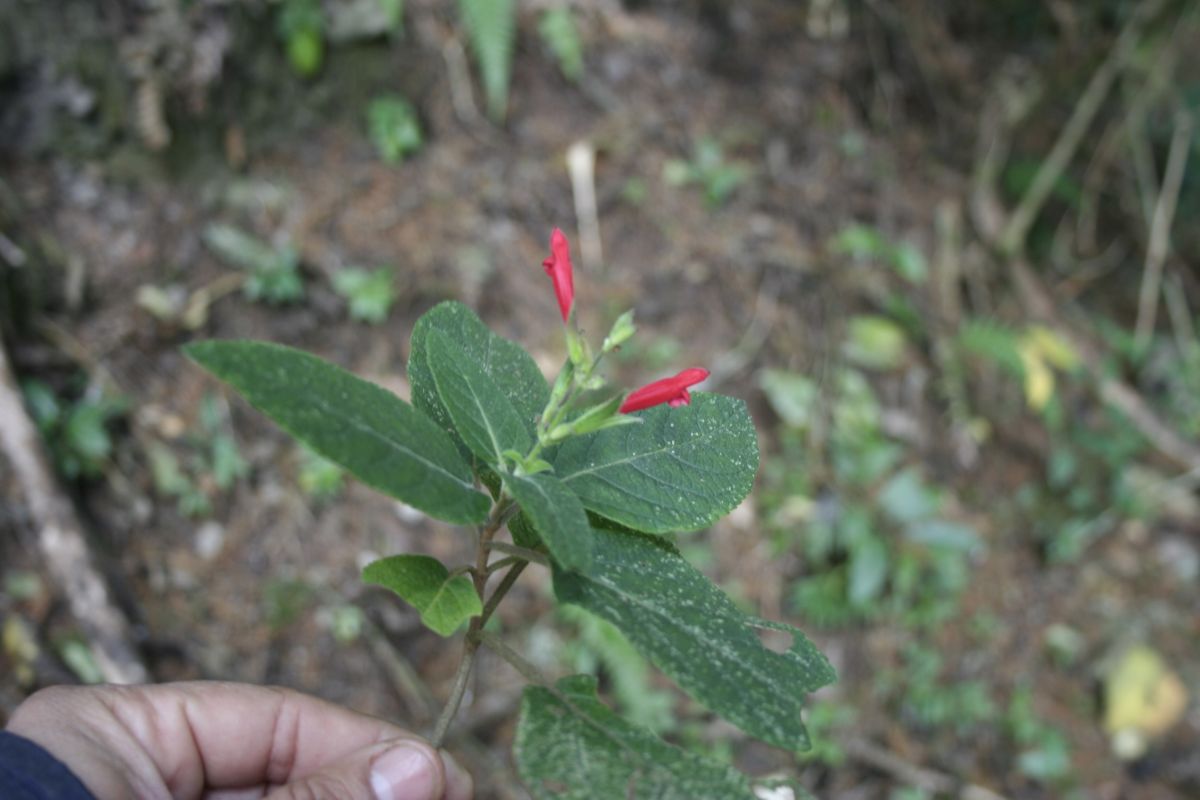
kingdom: Plantae
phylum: Tracheophyta
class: Magnoliopsida
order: Lamiales
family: Lamiaceae
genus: Salvia
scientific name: Salvia karwinskii
